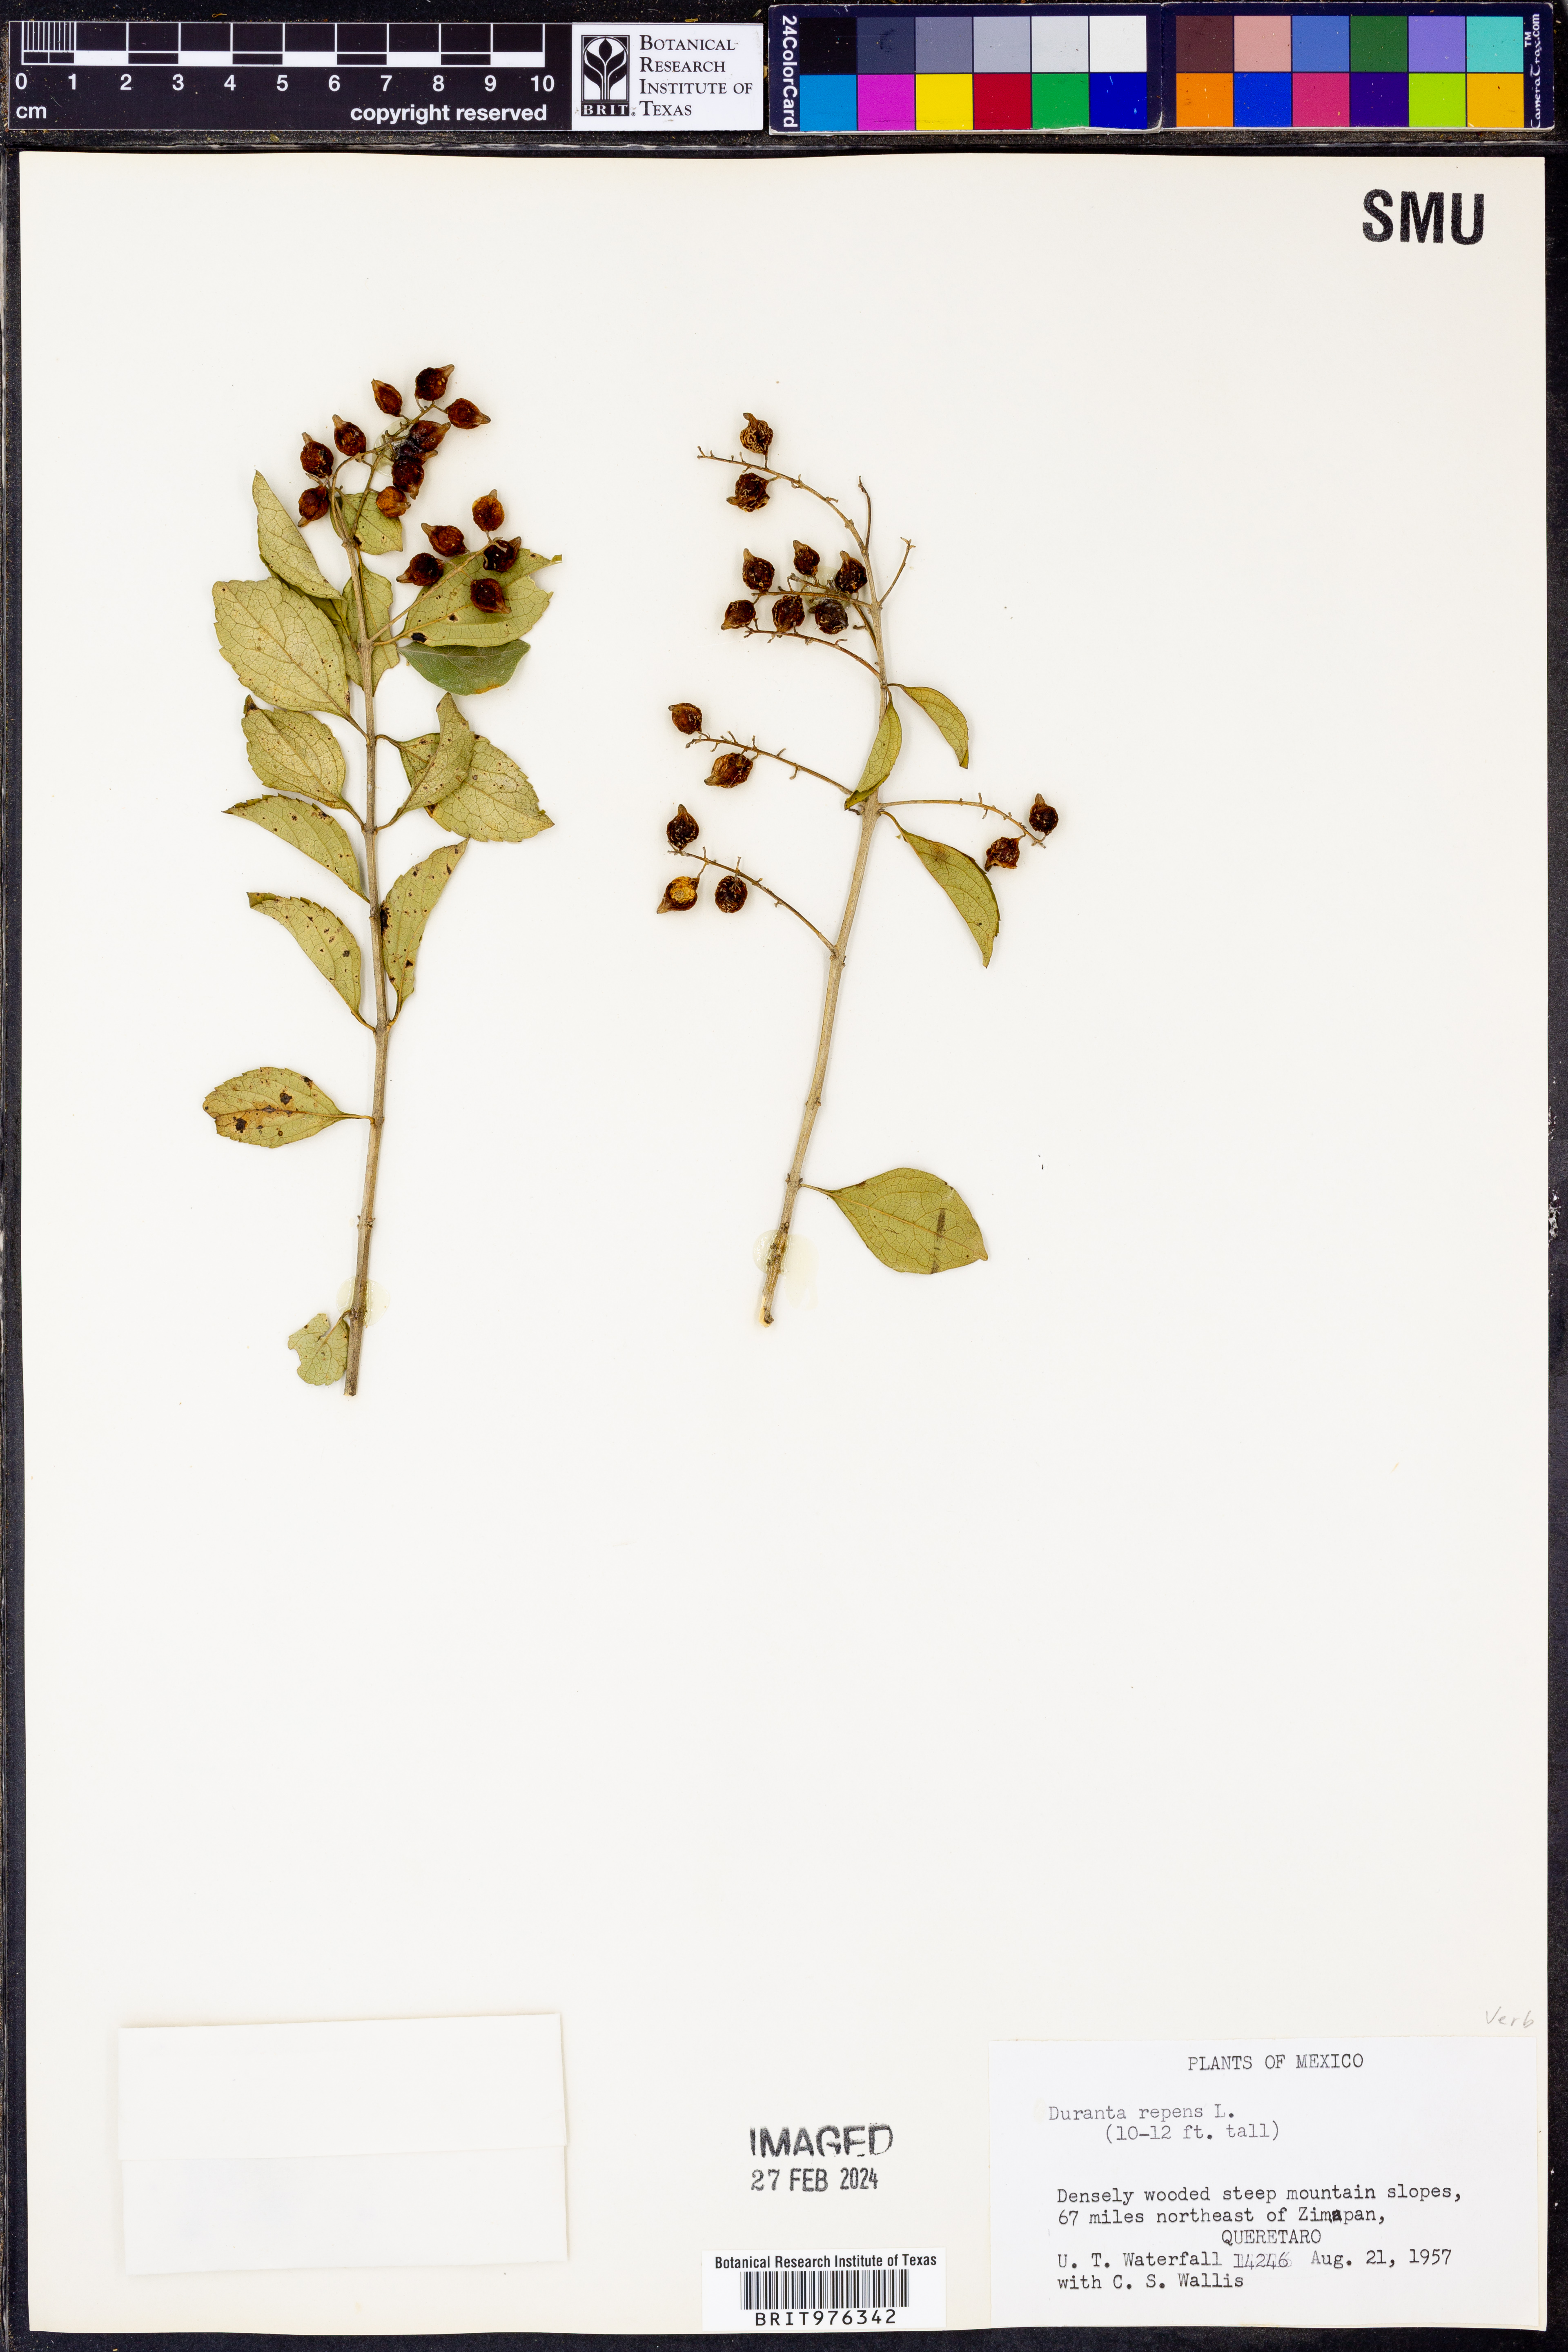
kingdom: Plantae
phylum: Tracheophyta
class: Magnoliopsida
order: Lamiales
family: Verbenaceae
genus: Duranta
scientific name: Duranta
